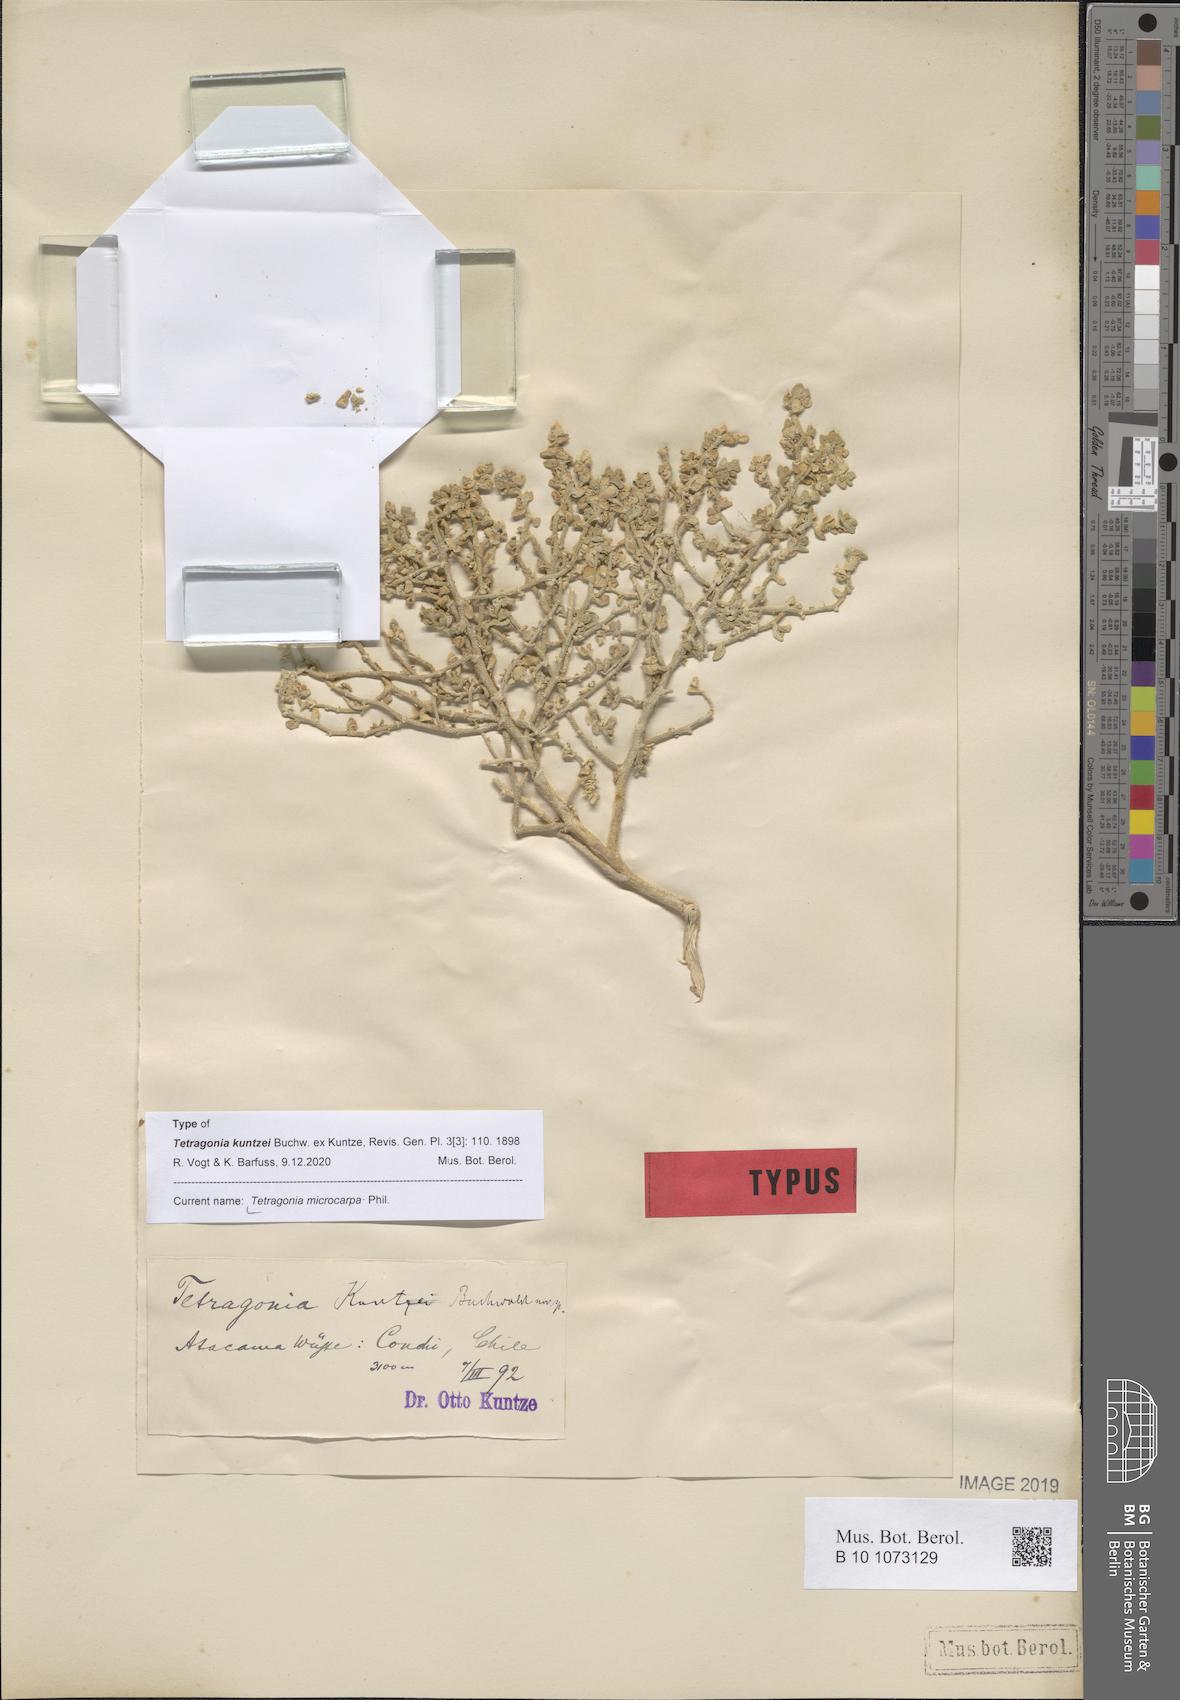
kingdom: Plantae
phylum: Tracheophyta
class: Magnoliopsida
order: Caryophyllales
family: Aizoaceae
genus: Tetragonia
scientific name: Tetragonia microcarpa
